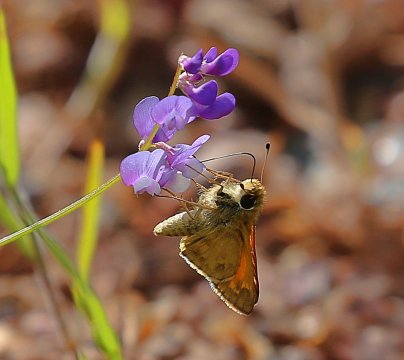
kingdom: Animalia
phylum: Arthropoda
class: Insecta
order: Lepidoptera
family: Hesperiidae
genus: Atalopedes
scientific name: Atalopedes campestris
